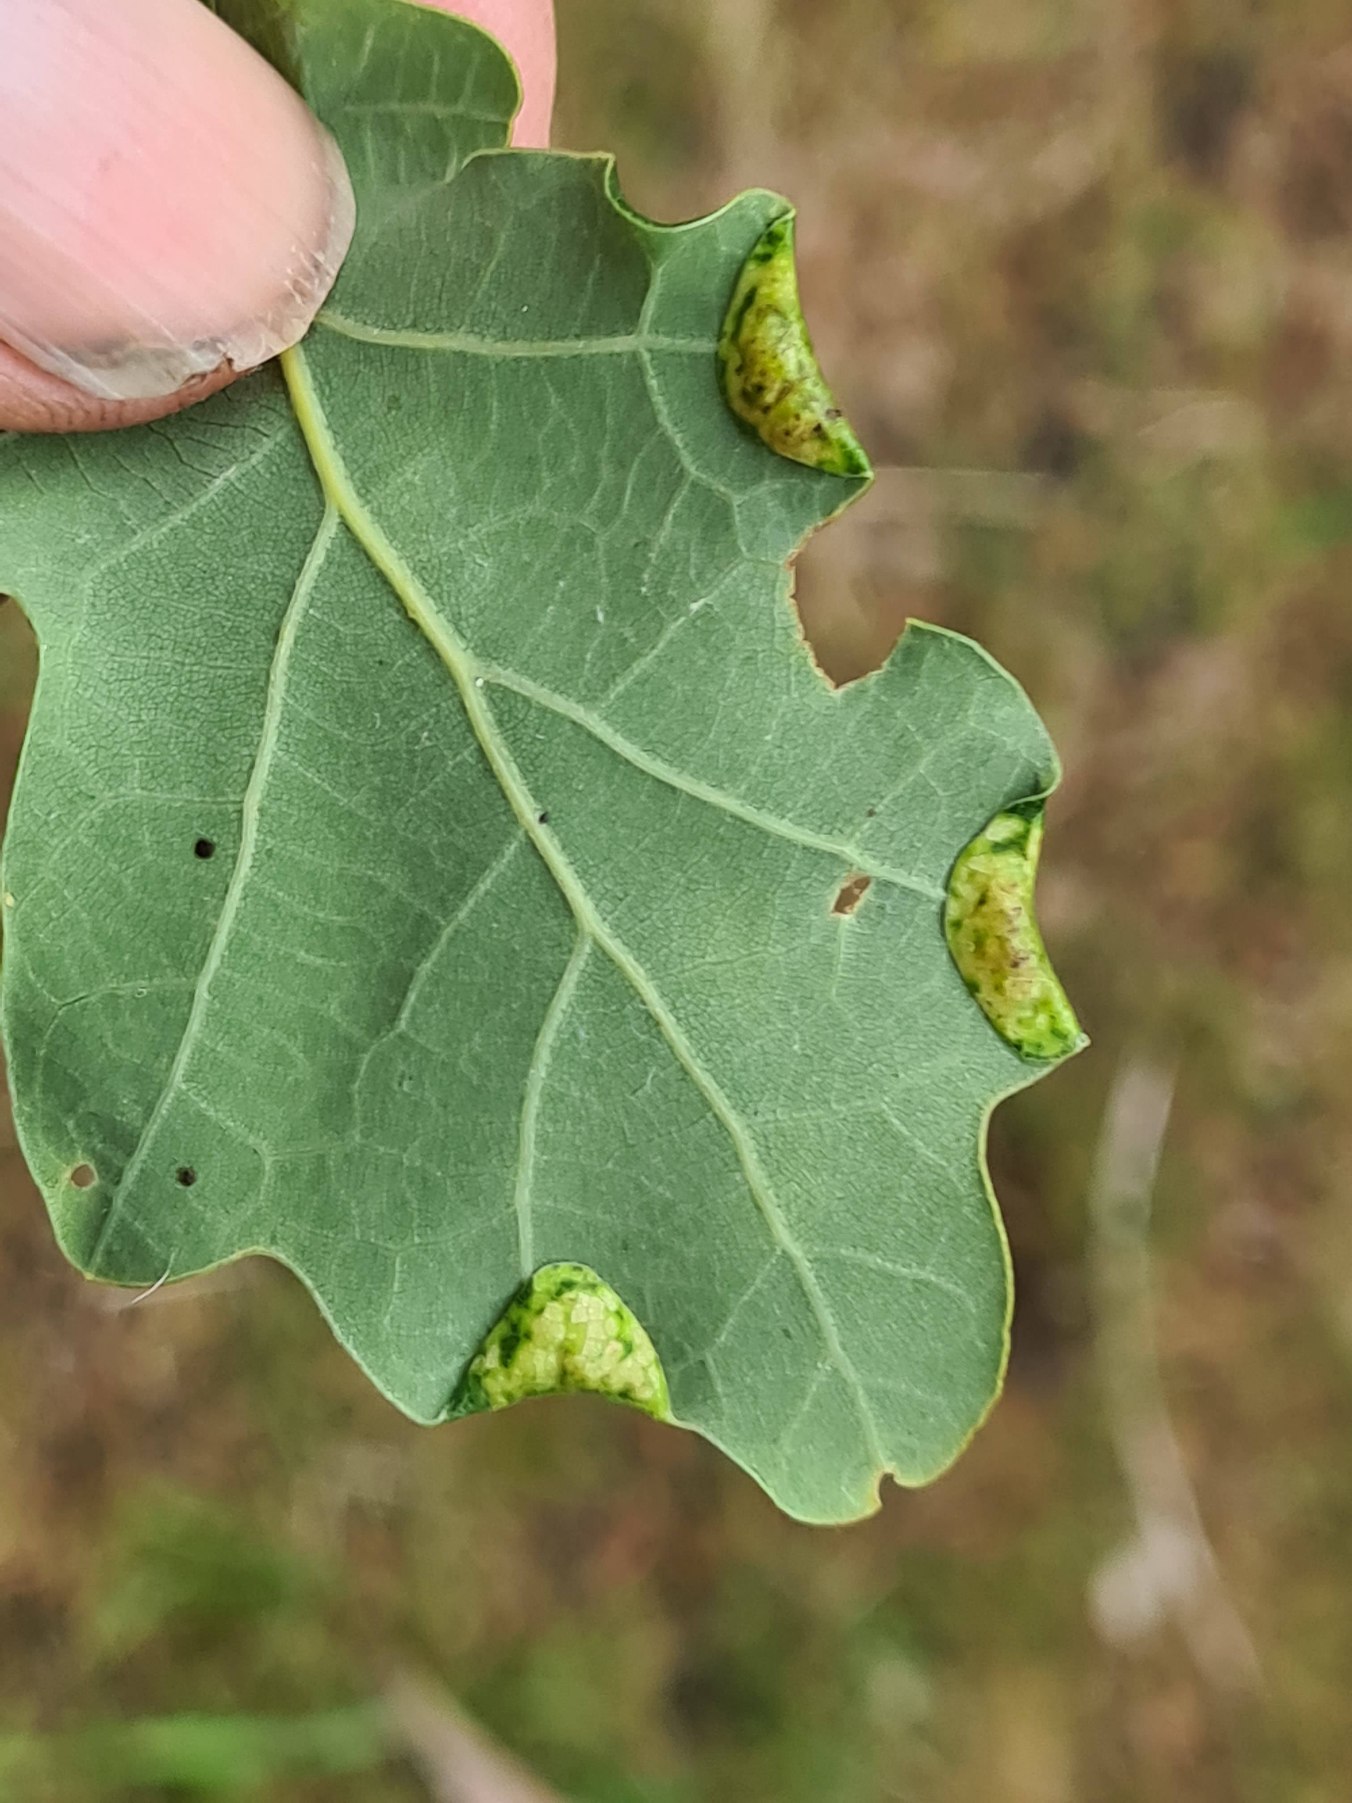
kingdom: Animalia
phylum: Arthropoda
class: Insecta
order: Diptera
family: Cecidomyiidae
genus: Macrodiplosis
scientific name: Macrodiplosis pustularis
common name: Marmorgalmyg
